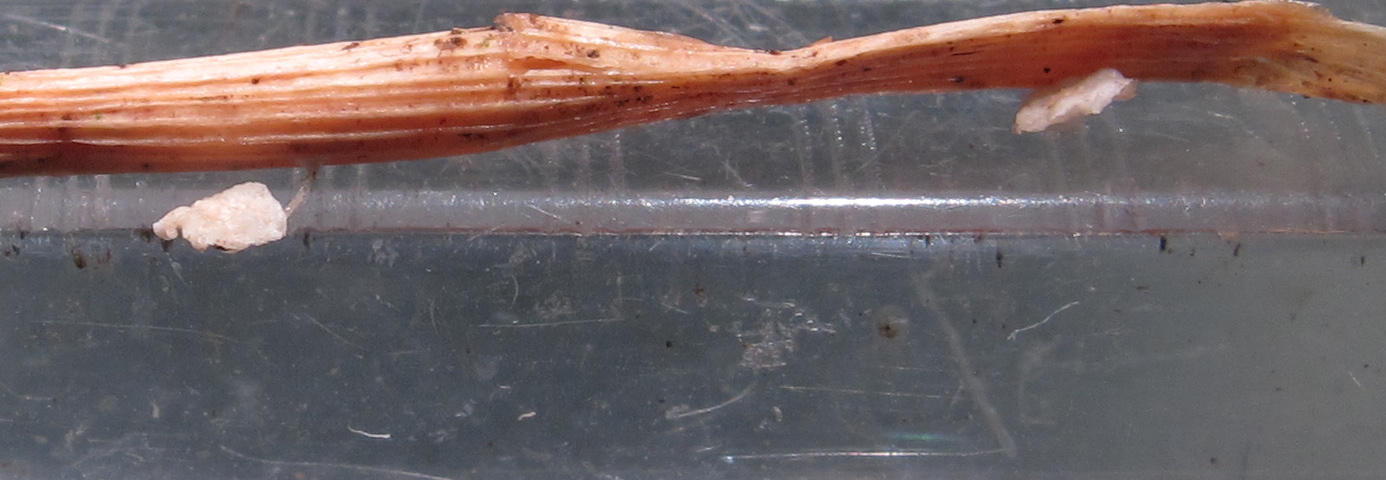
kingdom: Fungi
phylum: Basidiomycota
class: Agaricomycetes
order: Agaricales
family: Mycenaceae
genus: Resinomycena
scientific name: Resinomycena saccharifera
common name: sukkerhat
